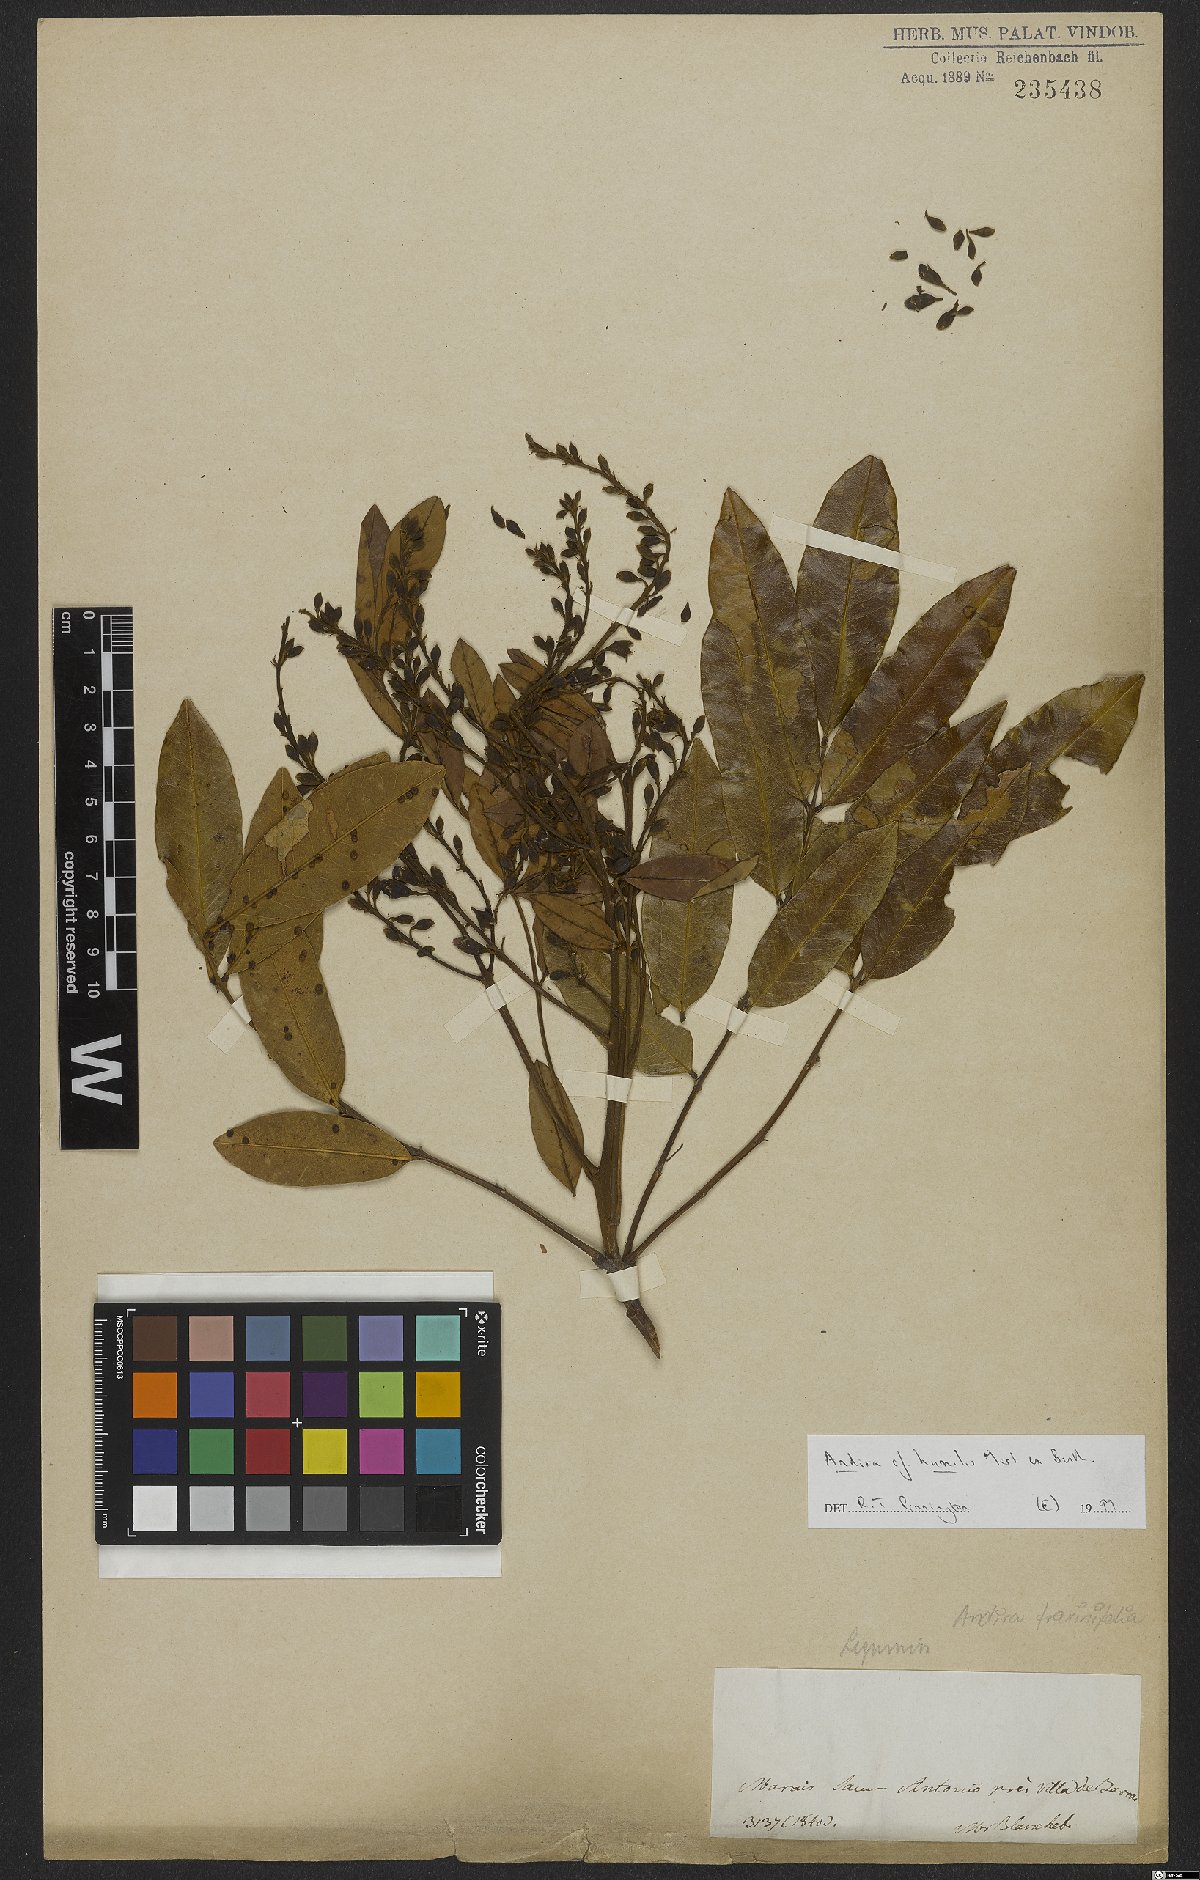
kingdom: Plantae
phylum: Tracheophyta
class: Magnoliopsida
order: Fabales
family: Fabaceae
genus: Andira
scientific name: Andira humilis
